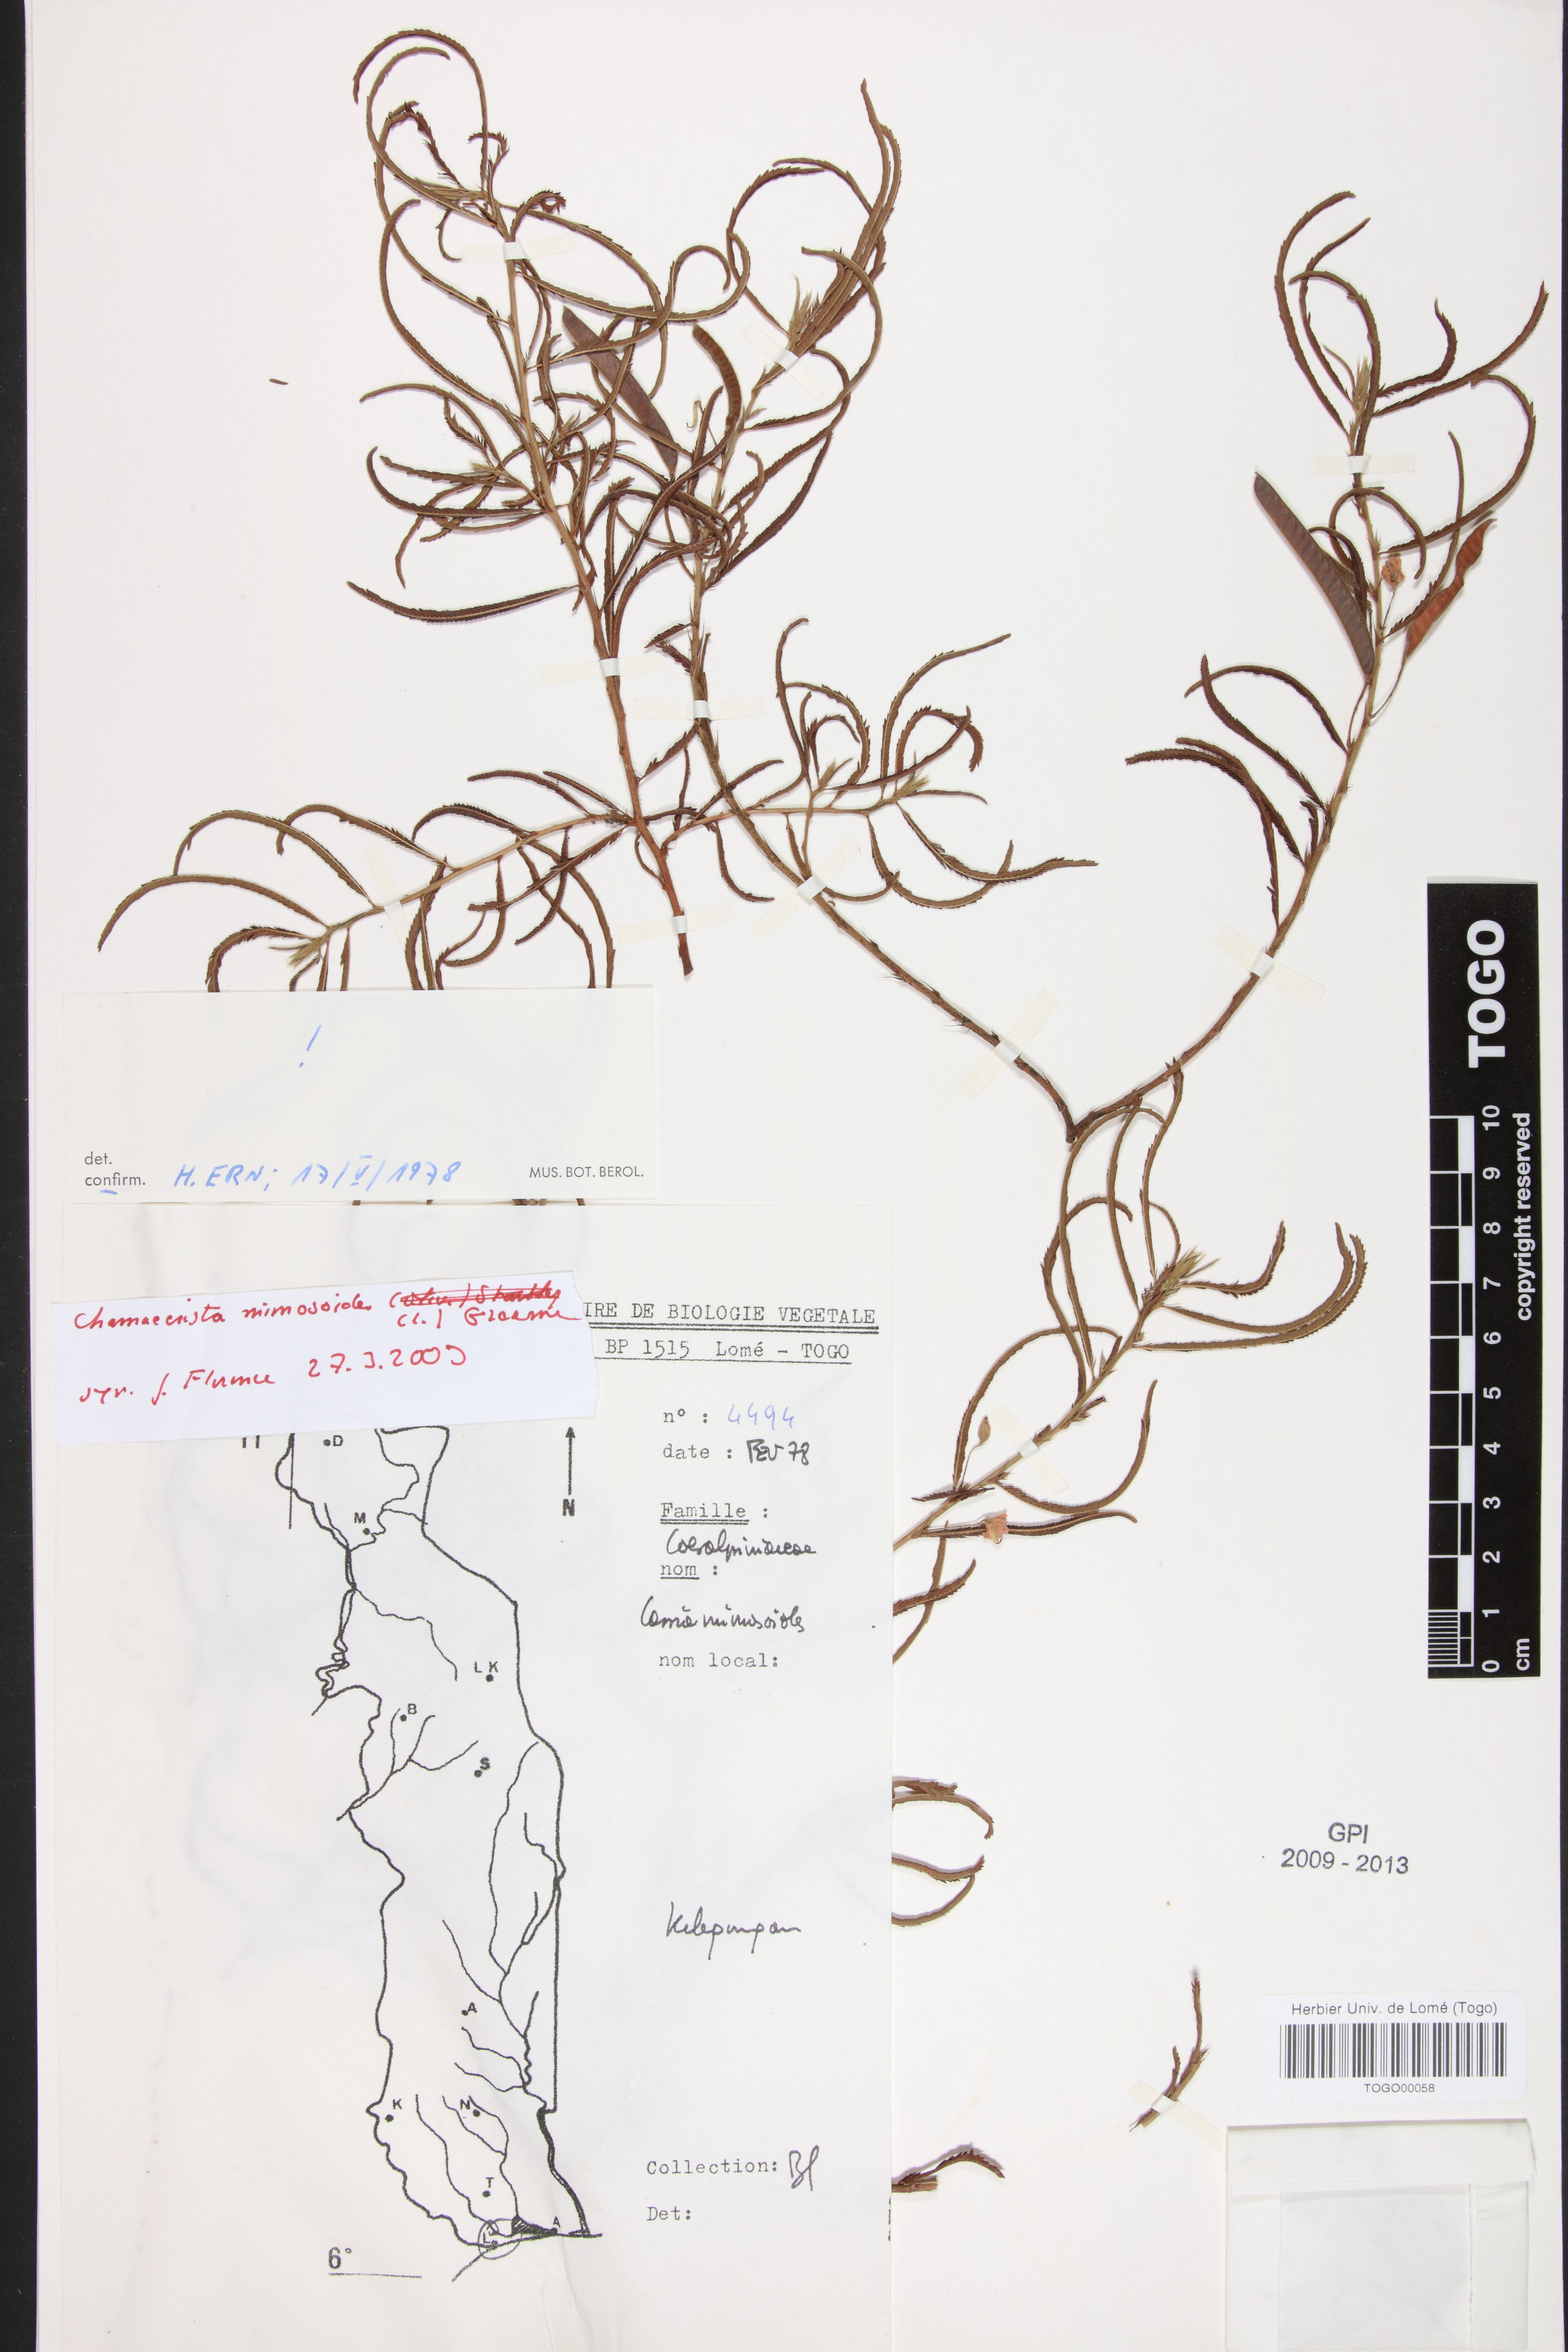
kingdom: Plantae
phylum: Tracheophyta
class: Magnoliopsida
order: Fabales
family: Fabaceae
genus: Chamaecrista
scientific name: Chamaecrista mimosoides
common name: Fish-bone cassia
